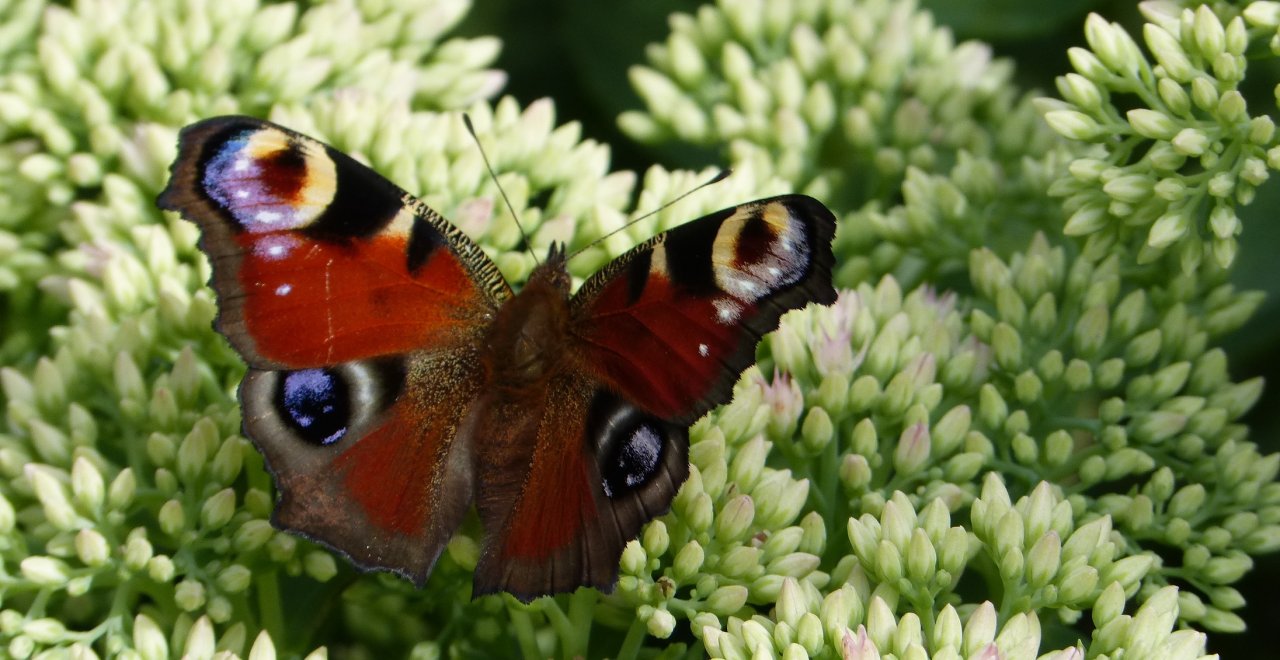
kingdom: Animalia
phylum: Arthropoda
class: Insecta
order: Lepidoptera
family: Nymphalidae
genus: Aglais
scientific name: Aglais io
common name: European Peacock
